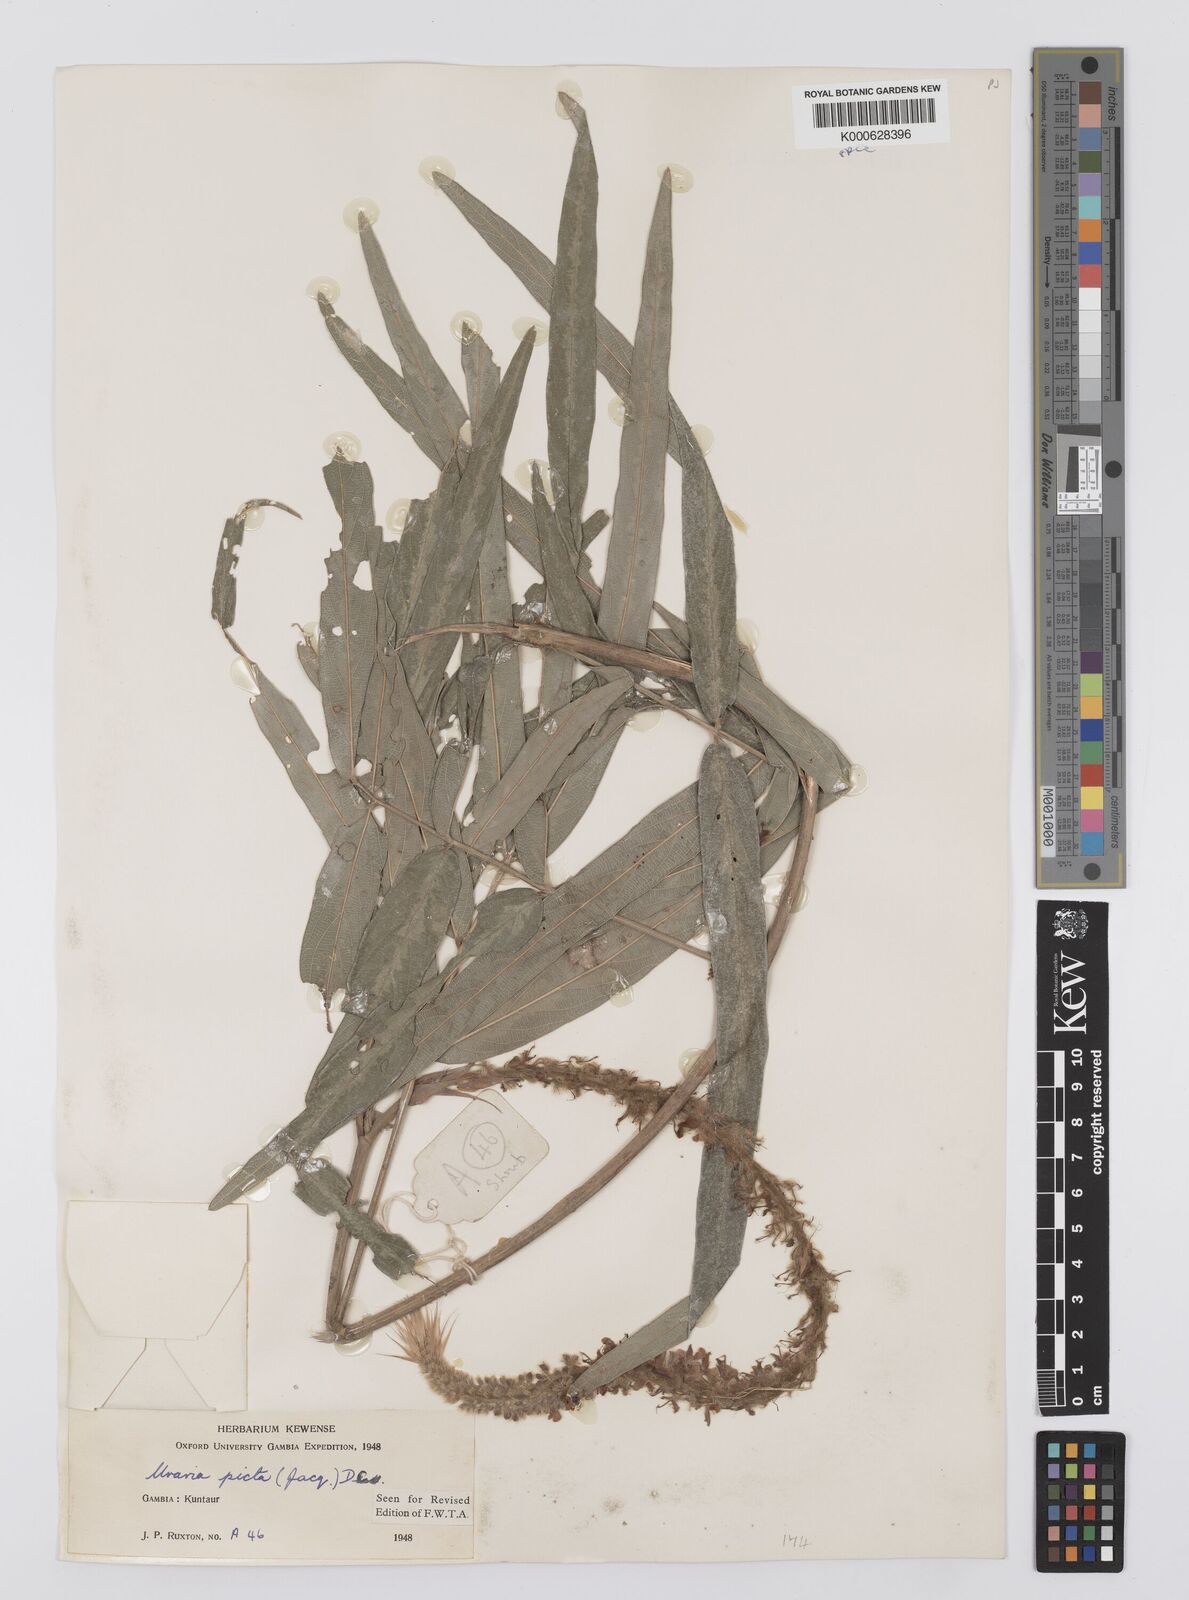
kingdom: Plantae
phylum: Tracheophyta
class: Magnoliopsida
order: Fabales
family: Fabaceae
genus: Uraria
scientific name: Uraria picta
